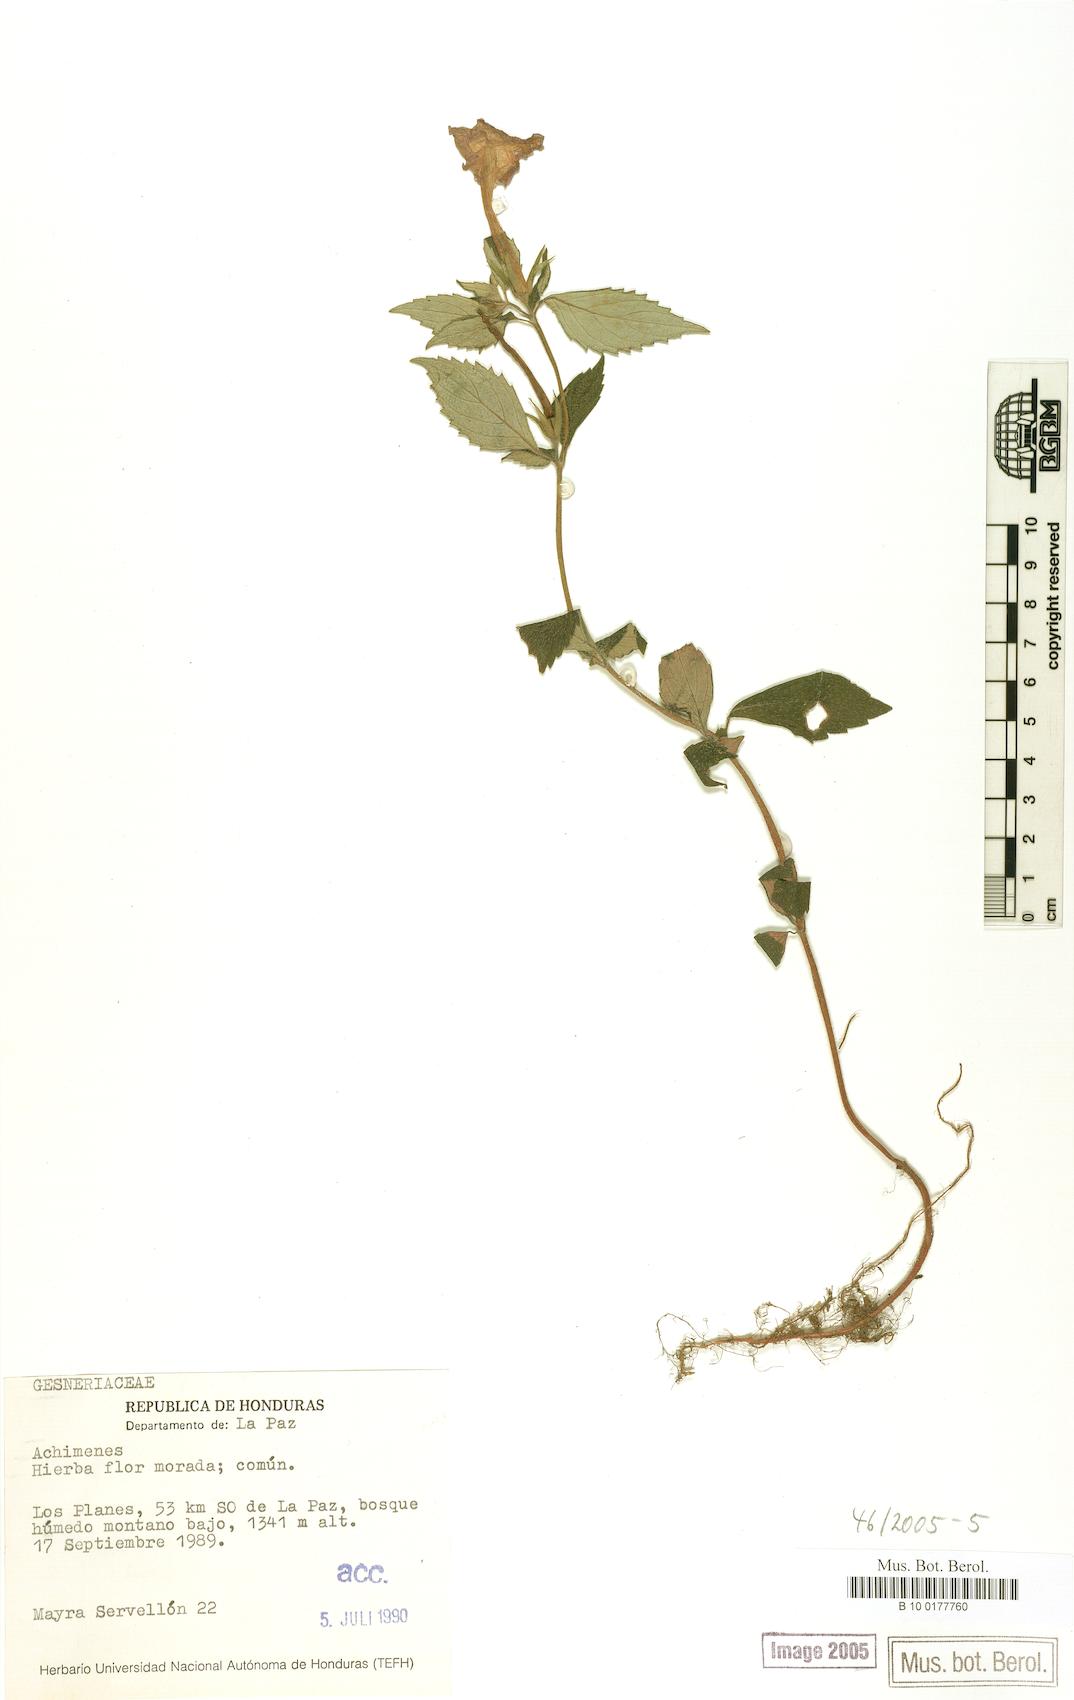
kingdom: Plantae
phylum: Tracheophyta
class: Magnoliopsida
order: Lamiales
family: Gesneriaceae
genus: Achimenes
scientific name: Achimenes
